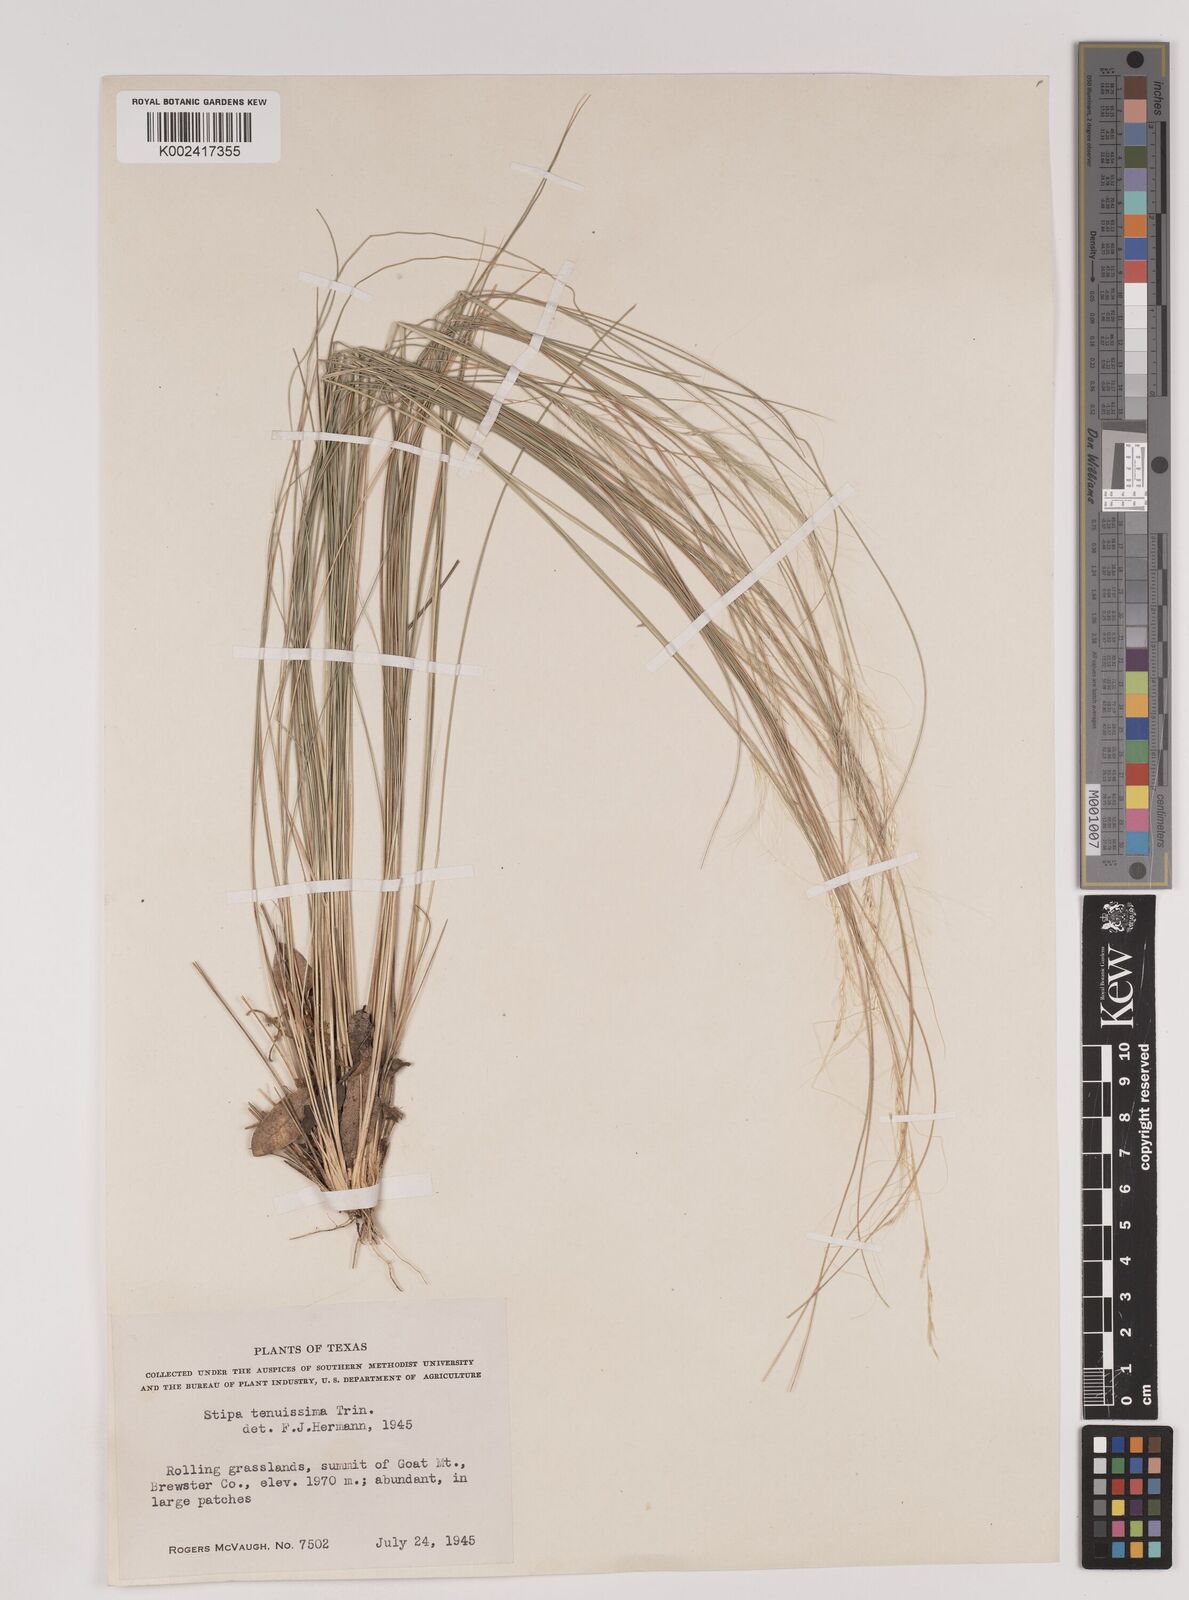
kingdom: Plantae
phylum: Tracheophyta
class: Liliopsida
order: Poales
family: Poaceae
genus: Nassella
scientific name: Nassella tenuissima
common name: Argentine needlegrass
